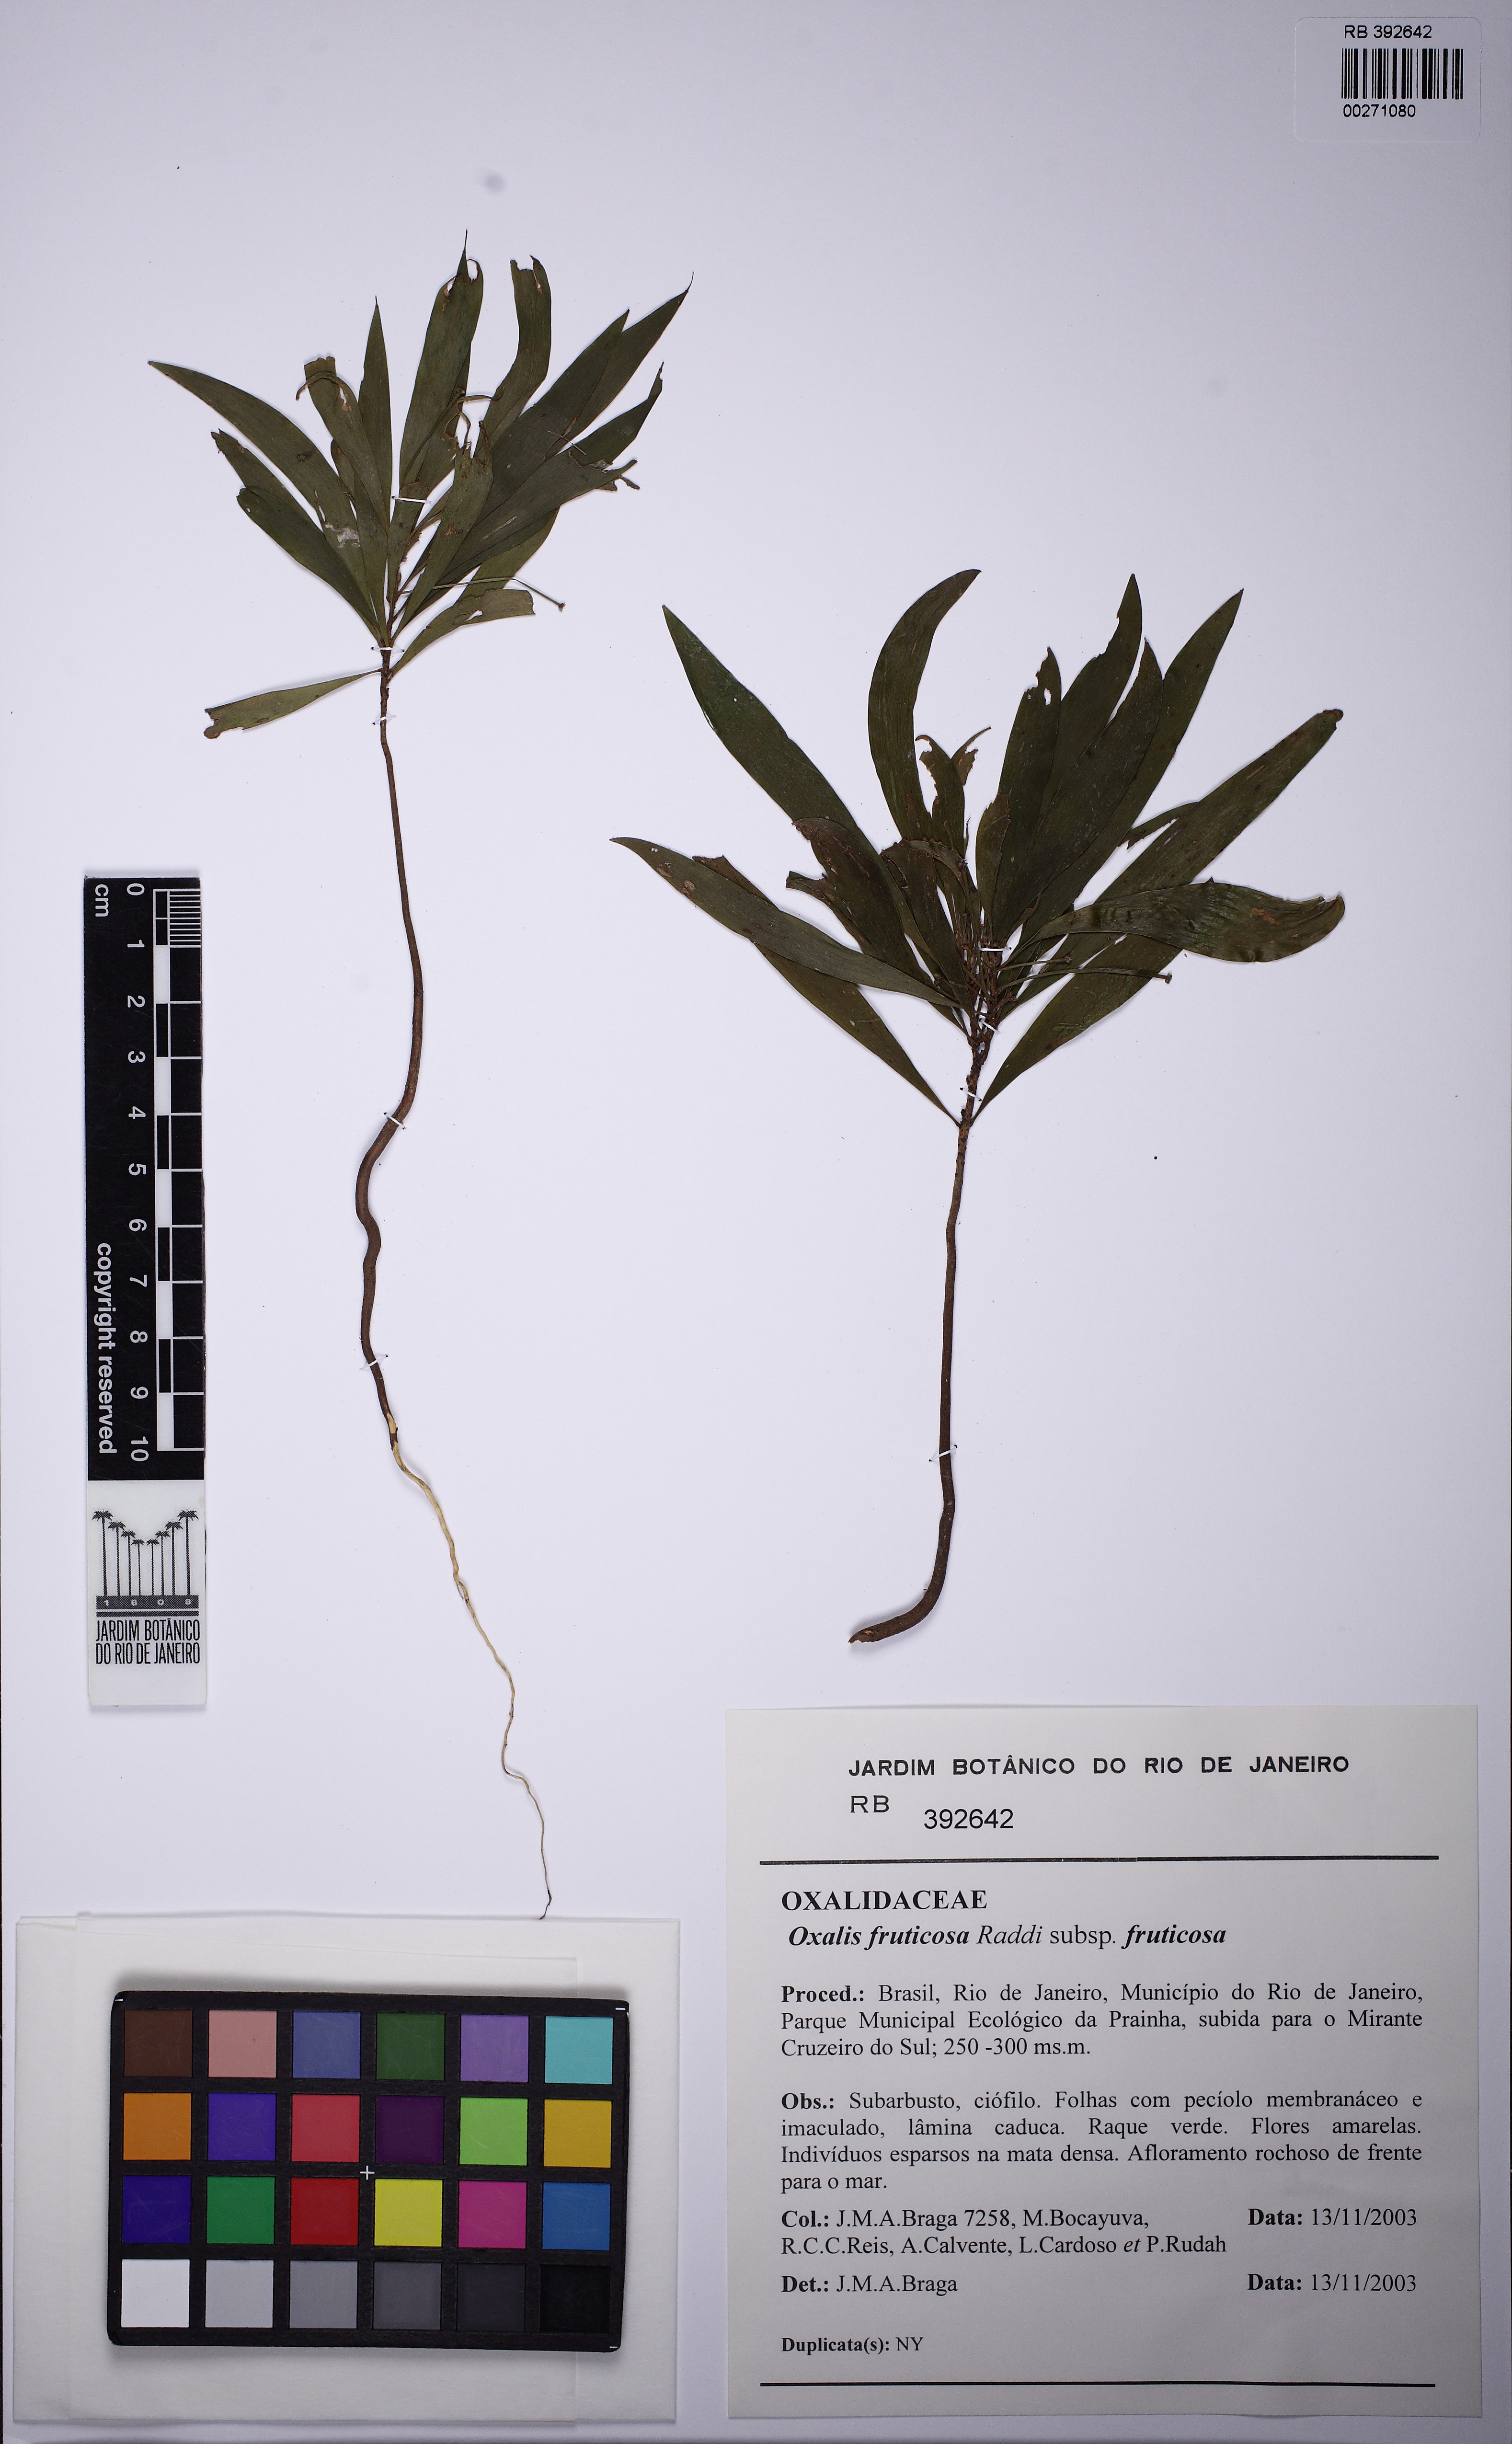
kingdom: Plantae
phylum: Tracheophyta
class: Magnoliopsida
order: Oxalidales
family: Oxalidaceae
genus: Oxalis
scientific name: Oxalis fruticosa
